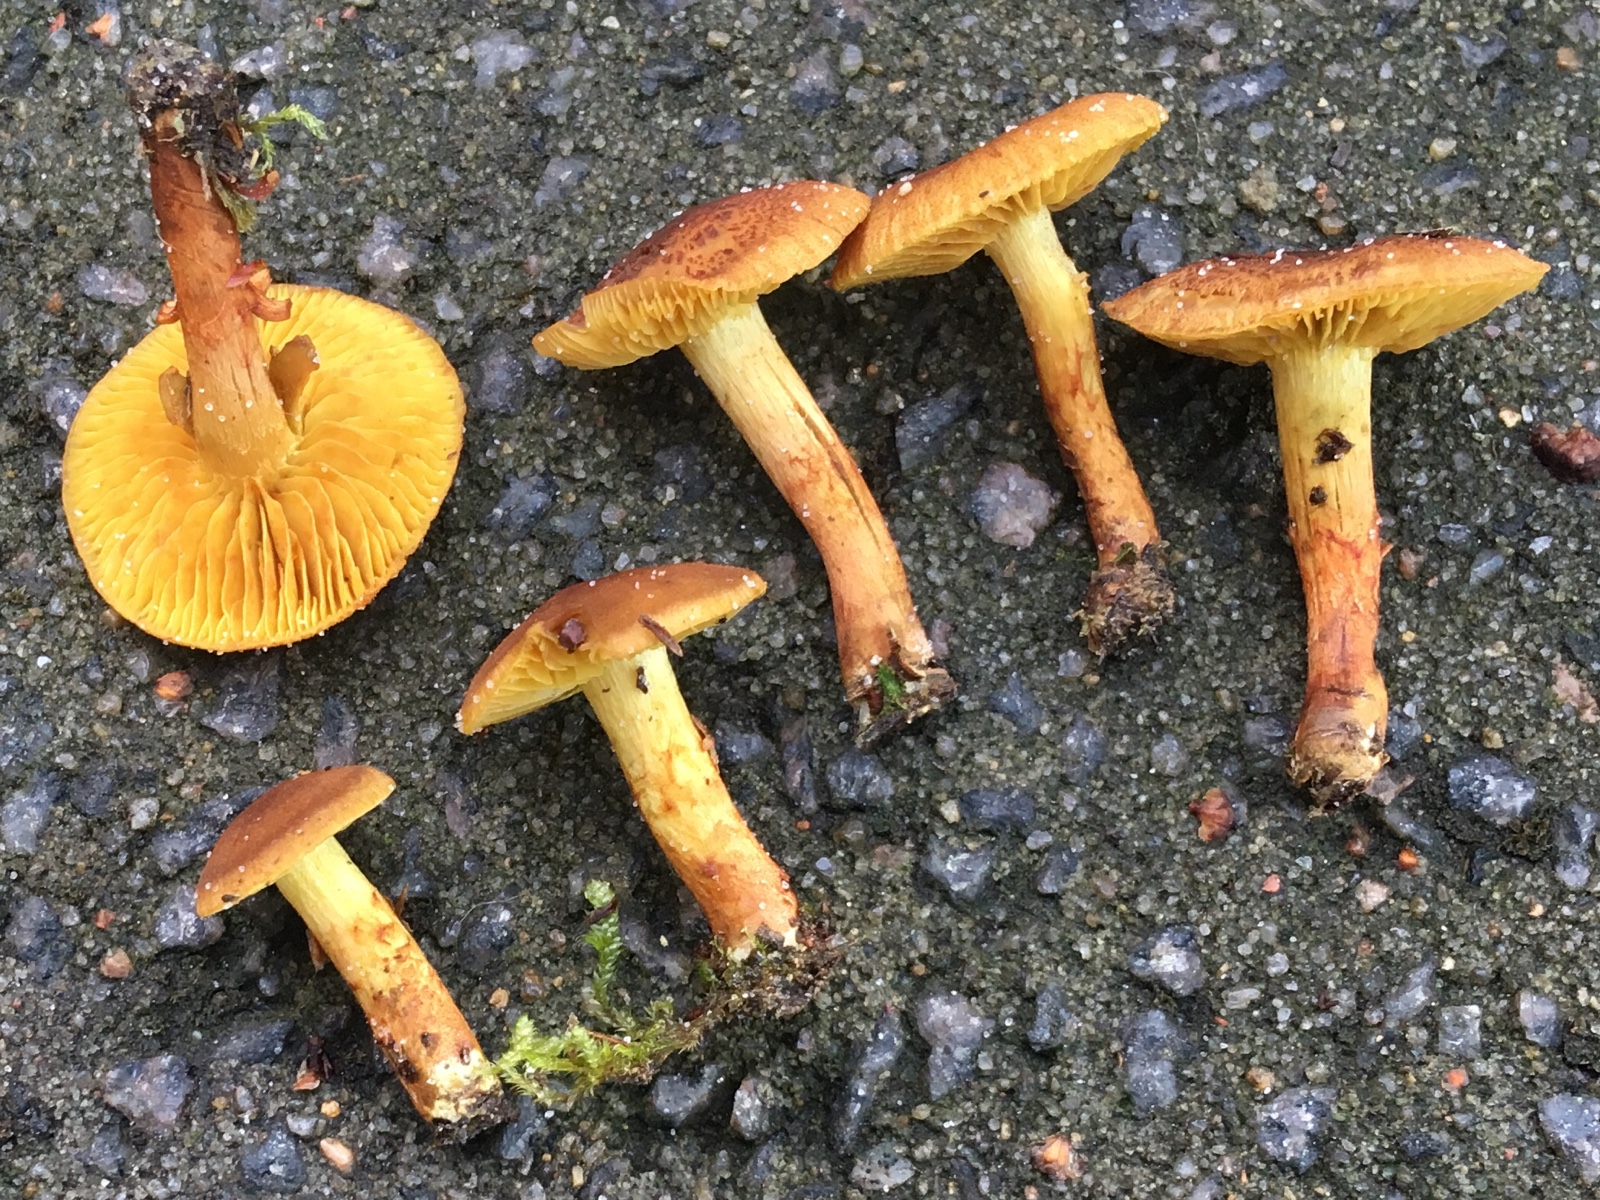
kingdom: Fungi
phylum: Basidiomycota
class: Agaricomycetes
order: Agaricales
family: Cortinariaceae
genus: Cortinarius
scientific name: Cortinarius bataillei
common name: orangefodet slørhat
